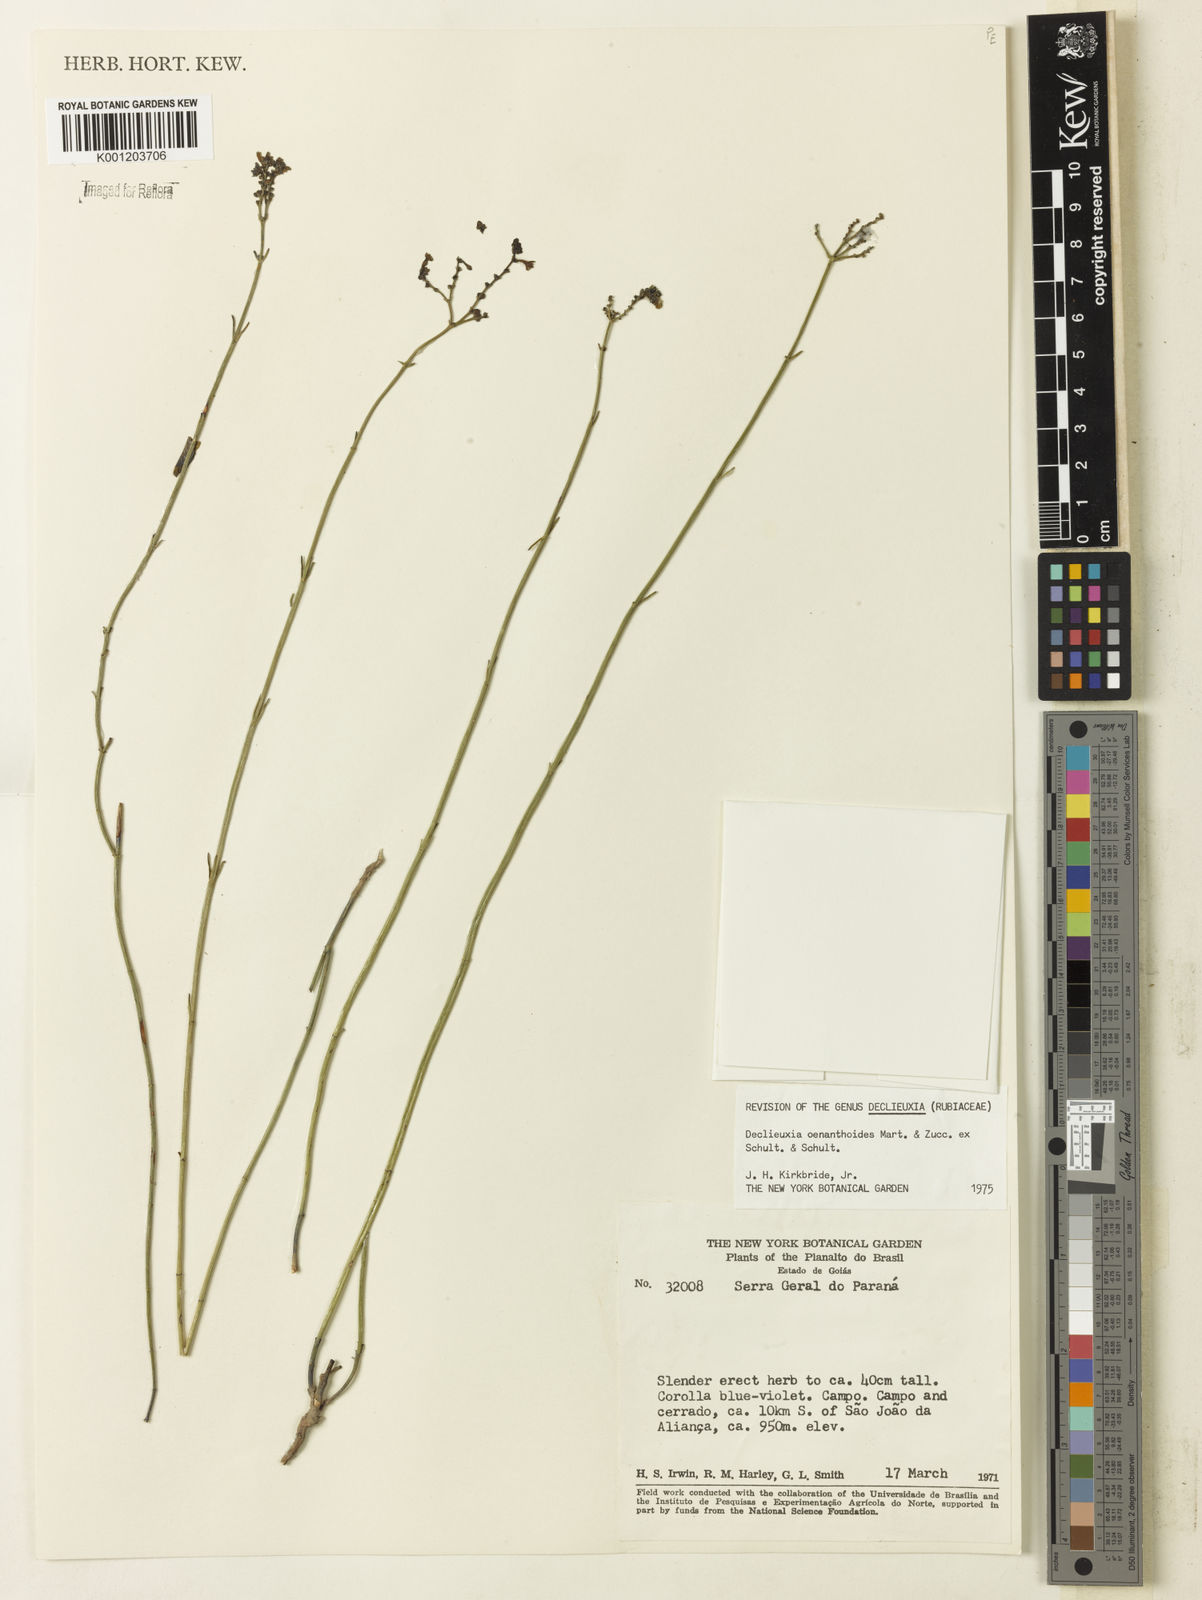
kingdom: Plantae
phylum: Tracheophyta
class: Magnoliopsida
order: Gentianales
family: Rubiaceae
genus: Declieuxia
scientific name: Declieuxia
